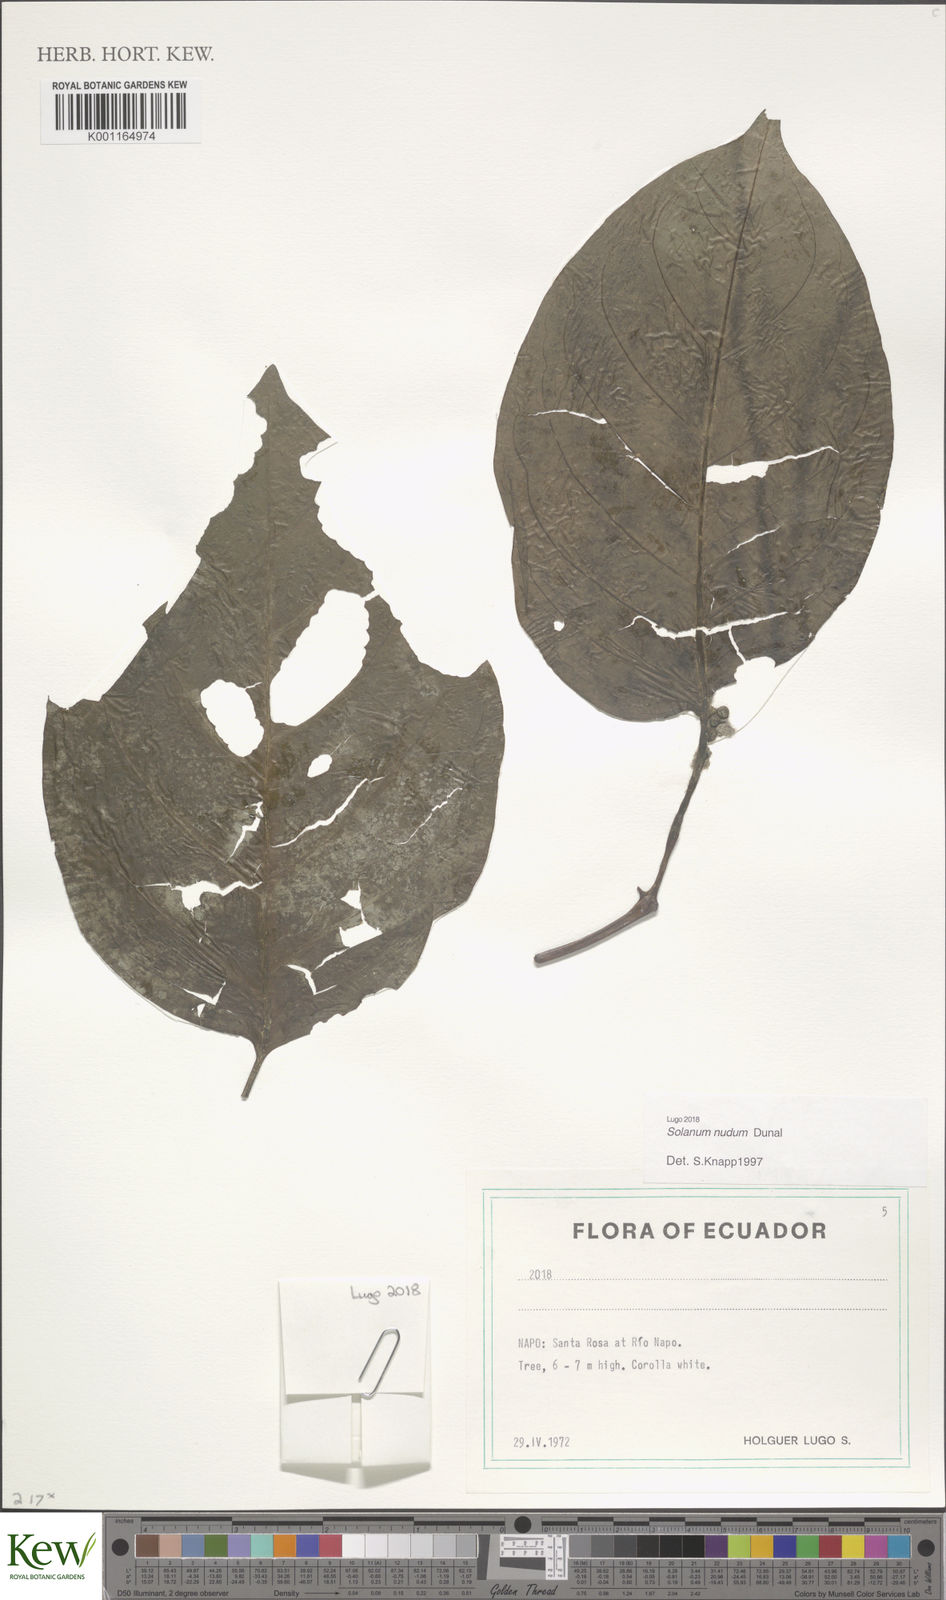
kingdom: Plantae
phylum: Tracheophyta
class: Magnoliopsida
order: Solanales
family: Solanaceae
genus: Solanum
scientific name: Solanum nudum
